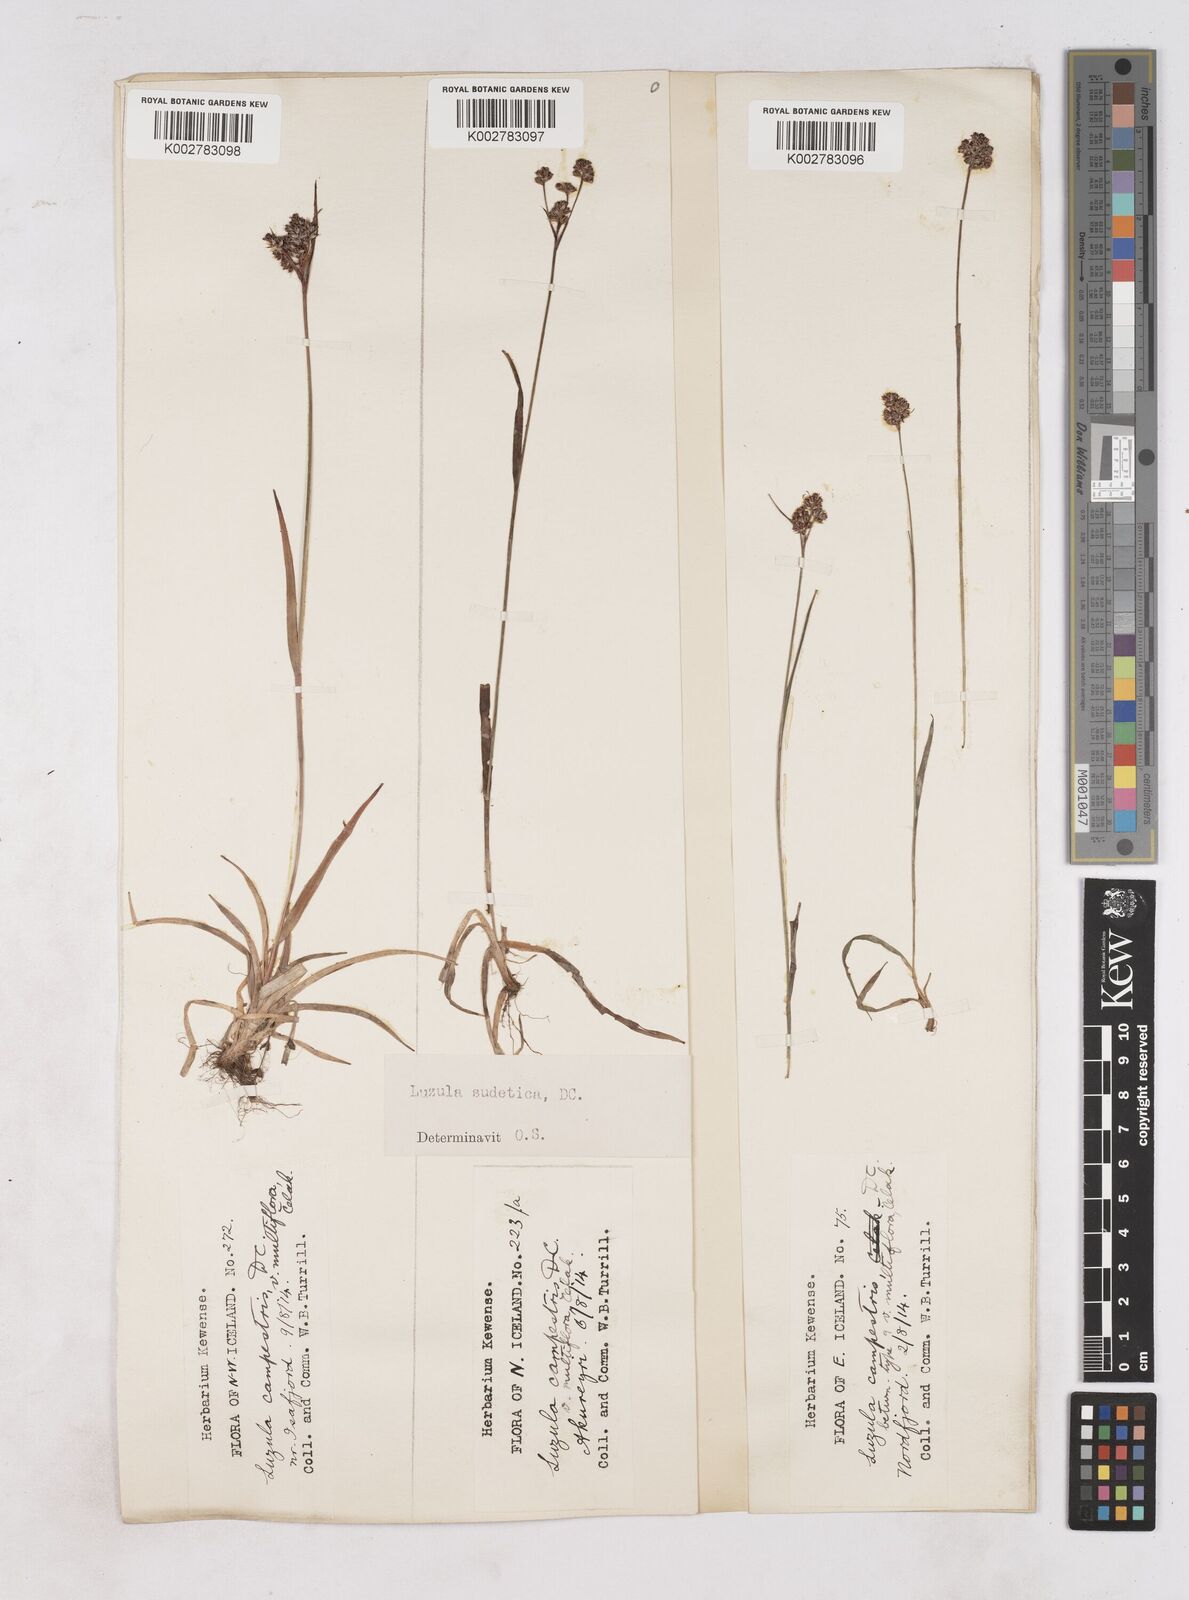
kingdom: Plantae
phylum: Tracheophyta
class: Liliopsida
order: Poales
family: Juncaceae
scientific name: Juncaceae
